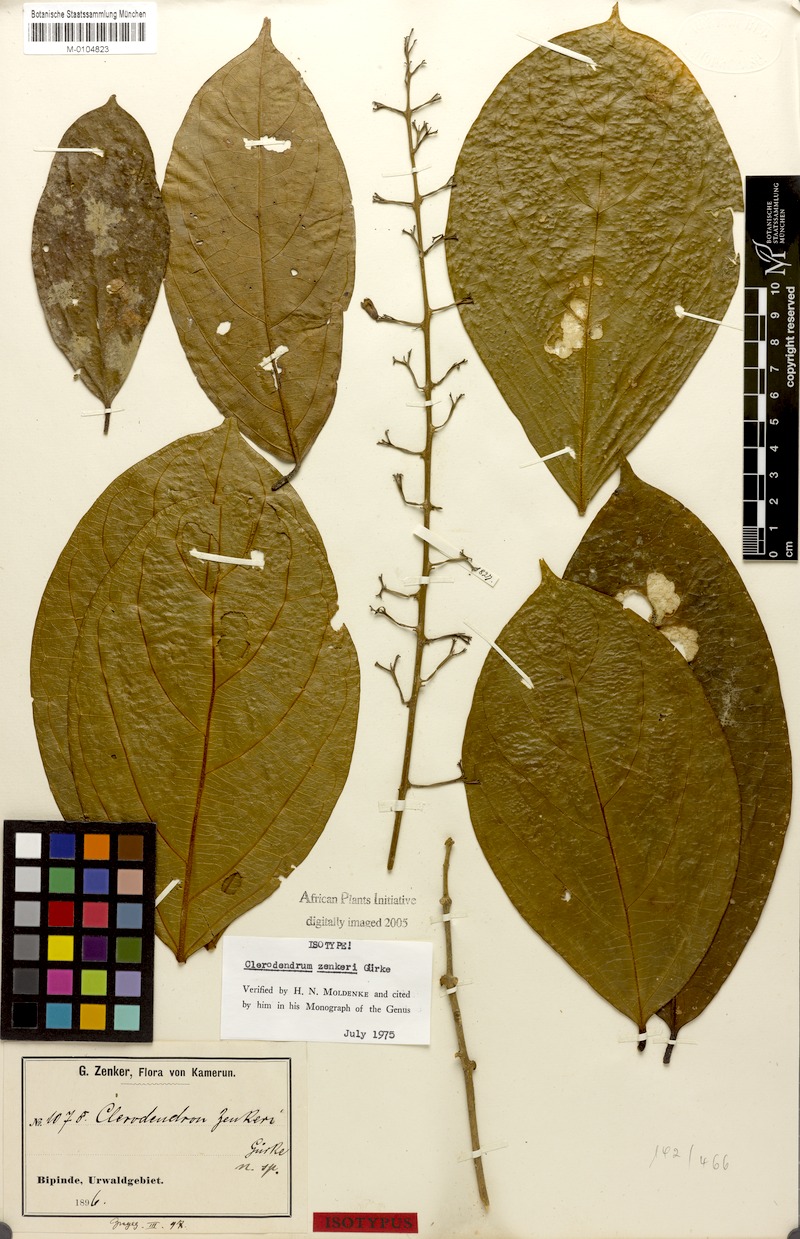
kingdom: Plantae
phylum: Tracheophyta
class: Magnoliopsida
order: Lamiales
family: Lamiaceae
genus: Clerodendrum
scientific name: Clerodendrum
